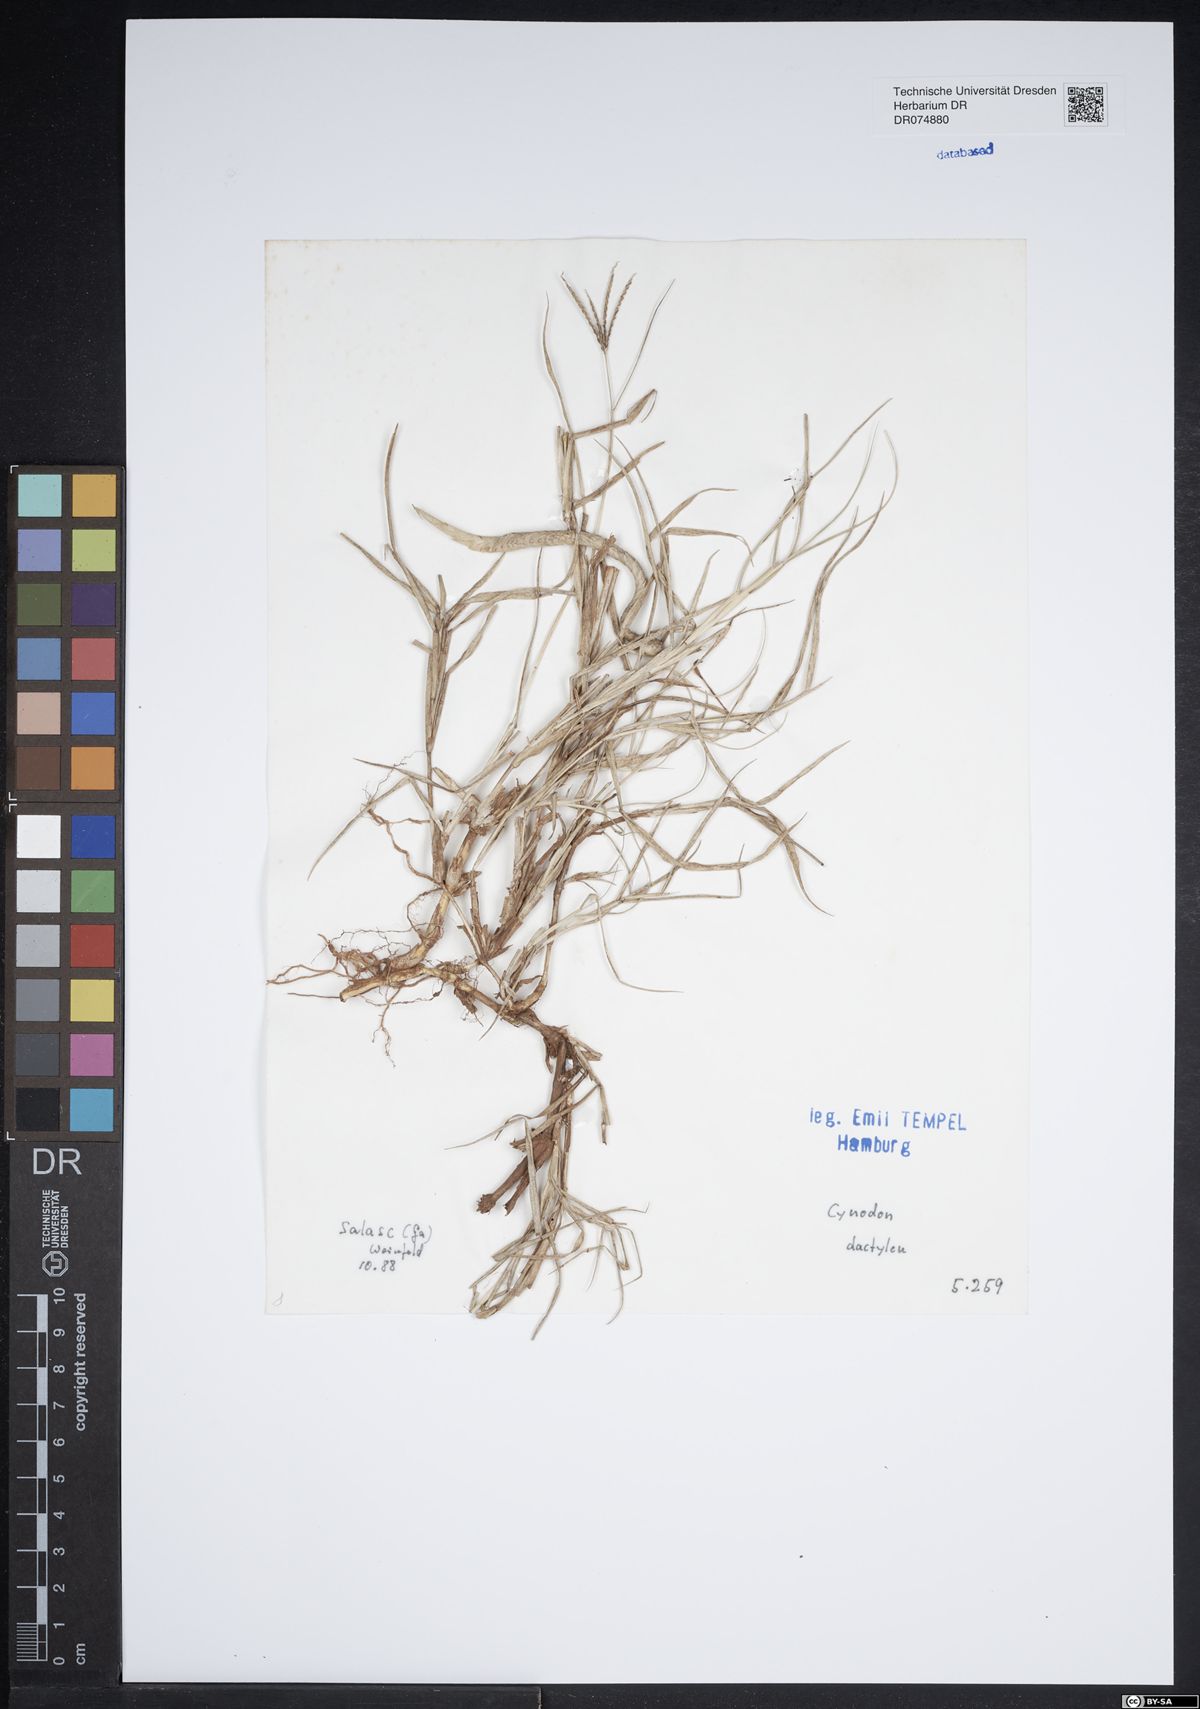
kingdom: Plantae
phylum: Tracheophyta
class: Liliopsida
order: Poales
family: Poaceae
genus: Cynodon
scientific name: Cynodon dactylon
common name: Bermuda grass
